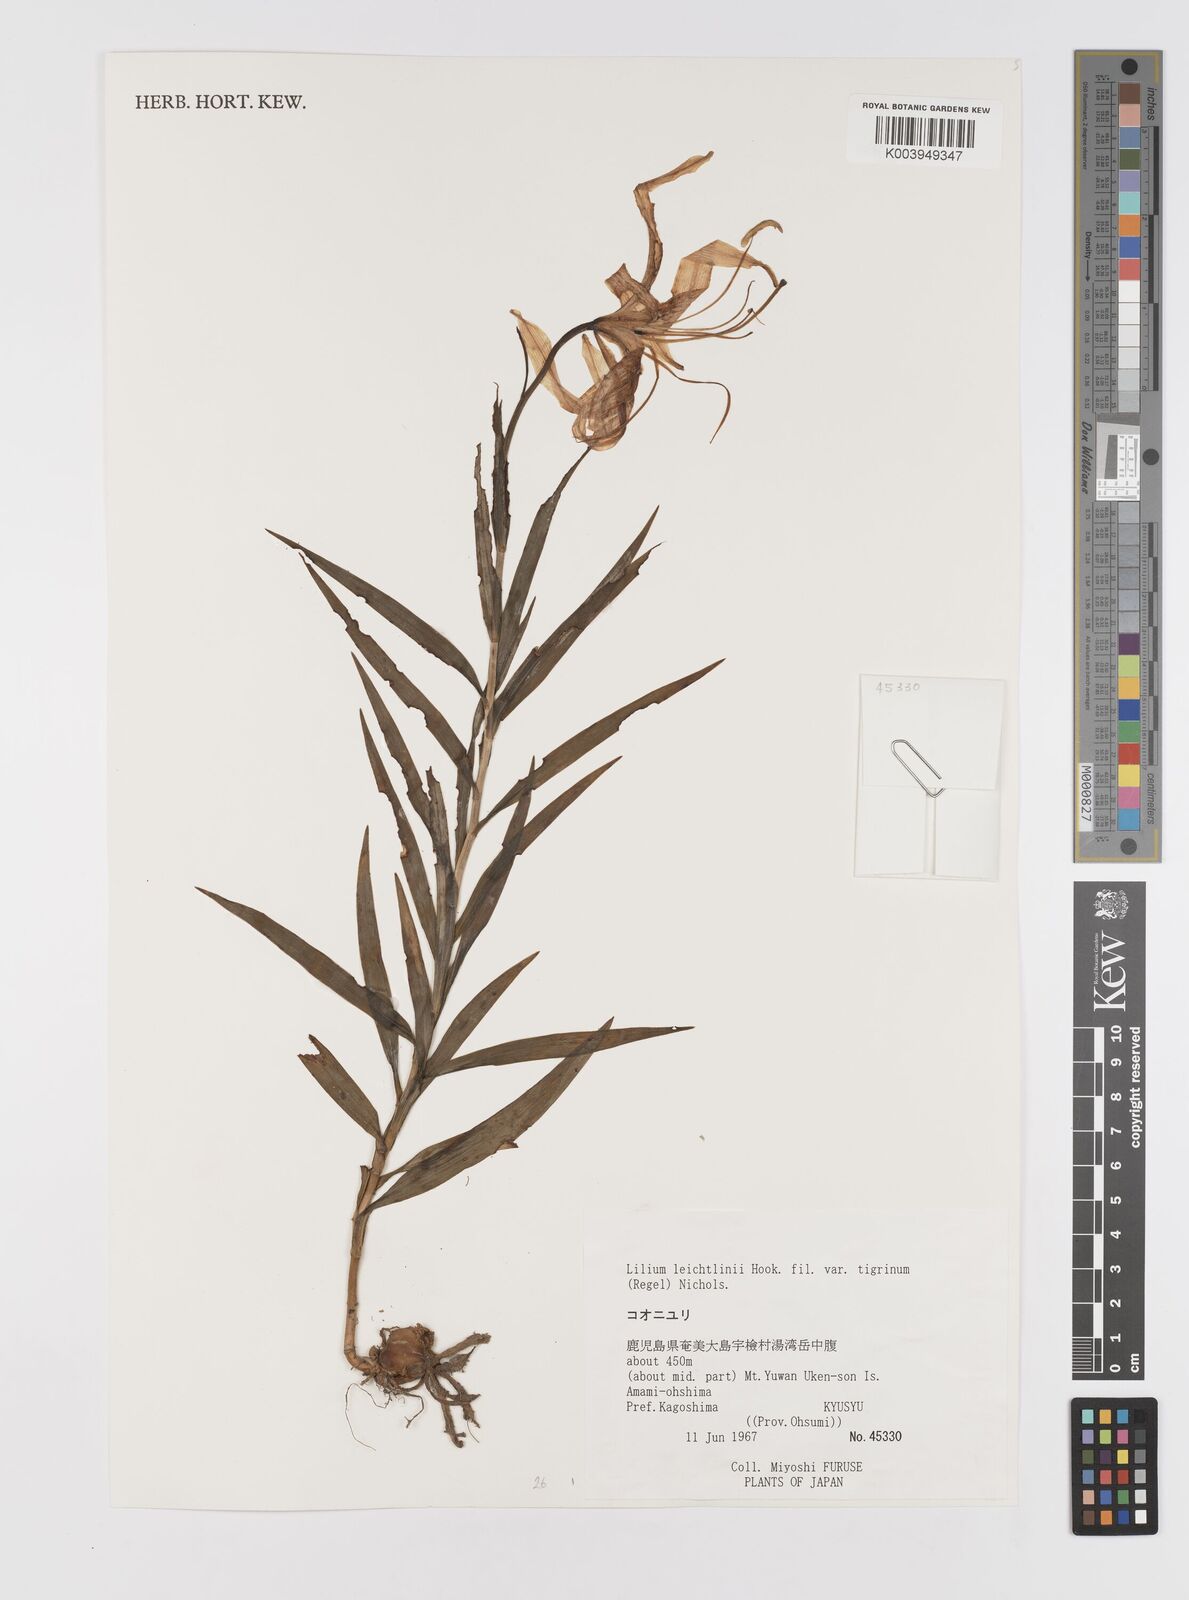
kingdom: Plantae
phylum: Tracheophyta
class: Liliopsida
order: Liliales
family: Liliaceae
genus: Lilium
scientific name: Lilium leichtlinii
